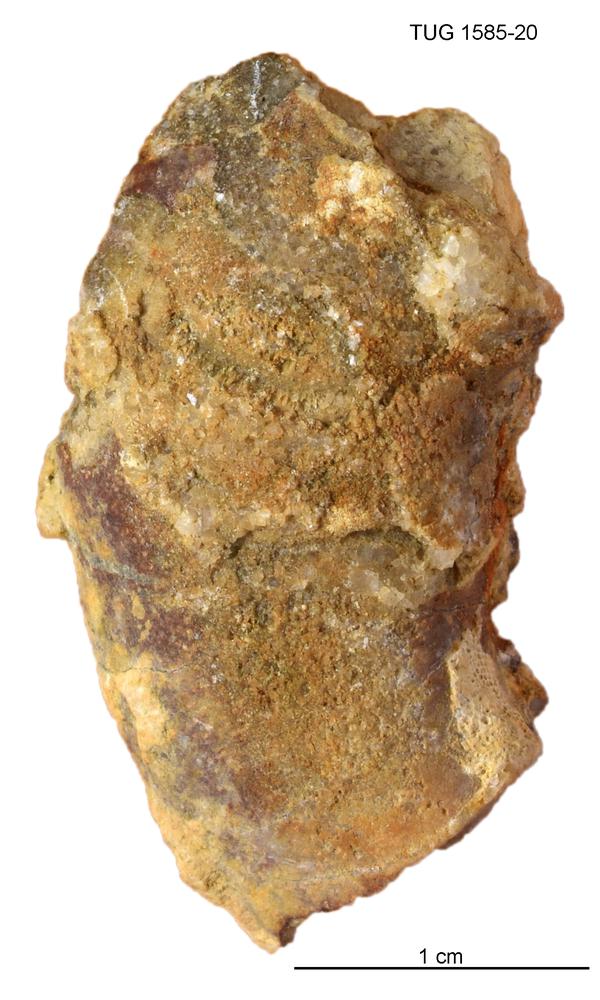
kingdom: Animalia
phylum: Mollusca
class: Cephalopoda
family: Barrandeoceratidae
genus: Vasalemmoceras
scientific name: Vasalemmoceras tolerabile
